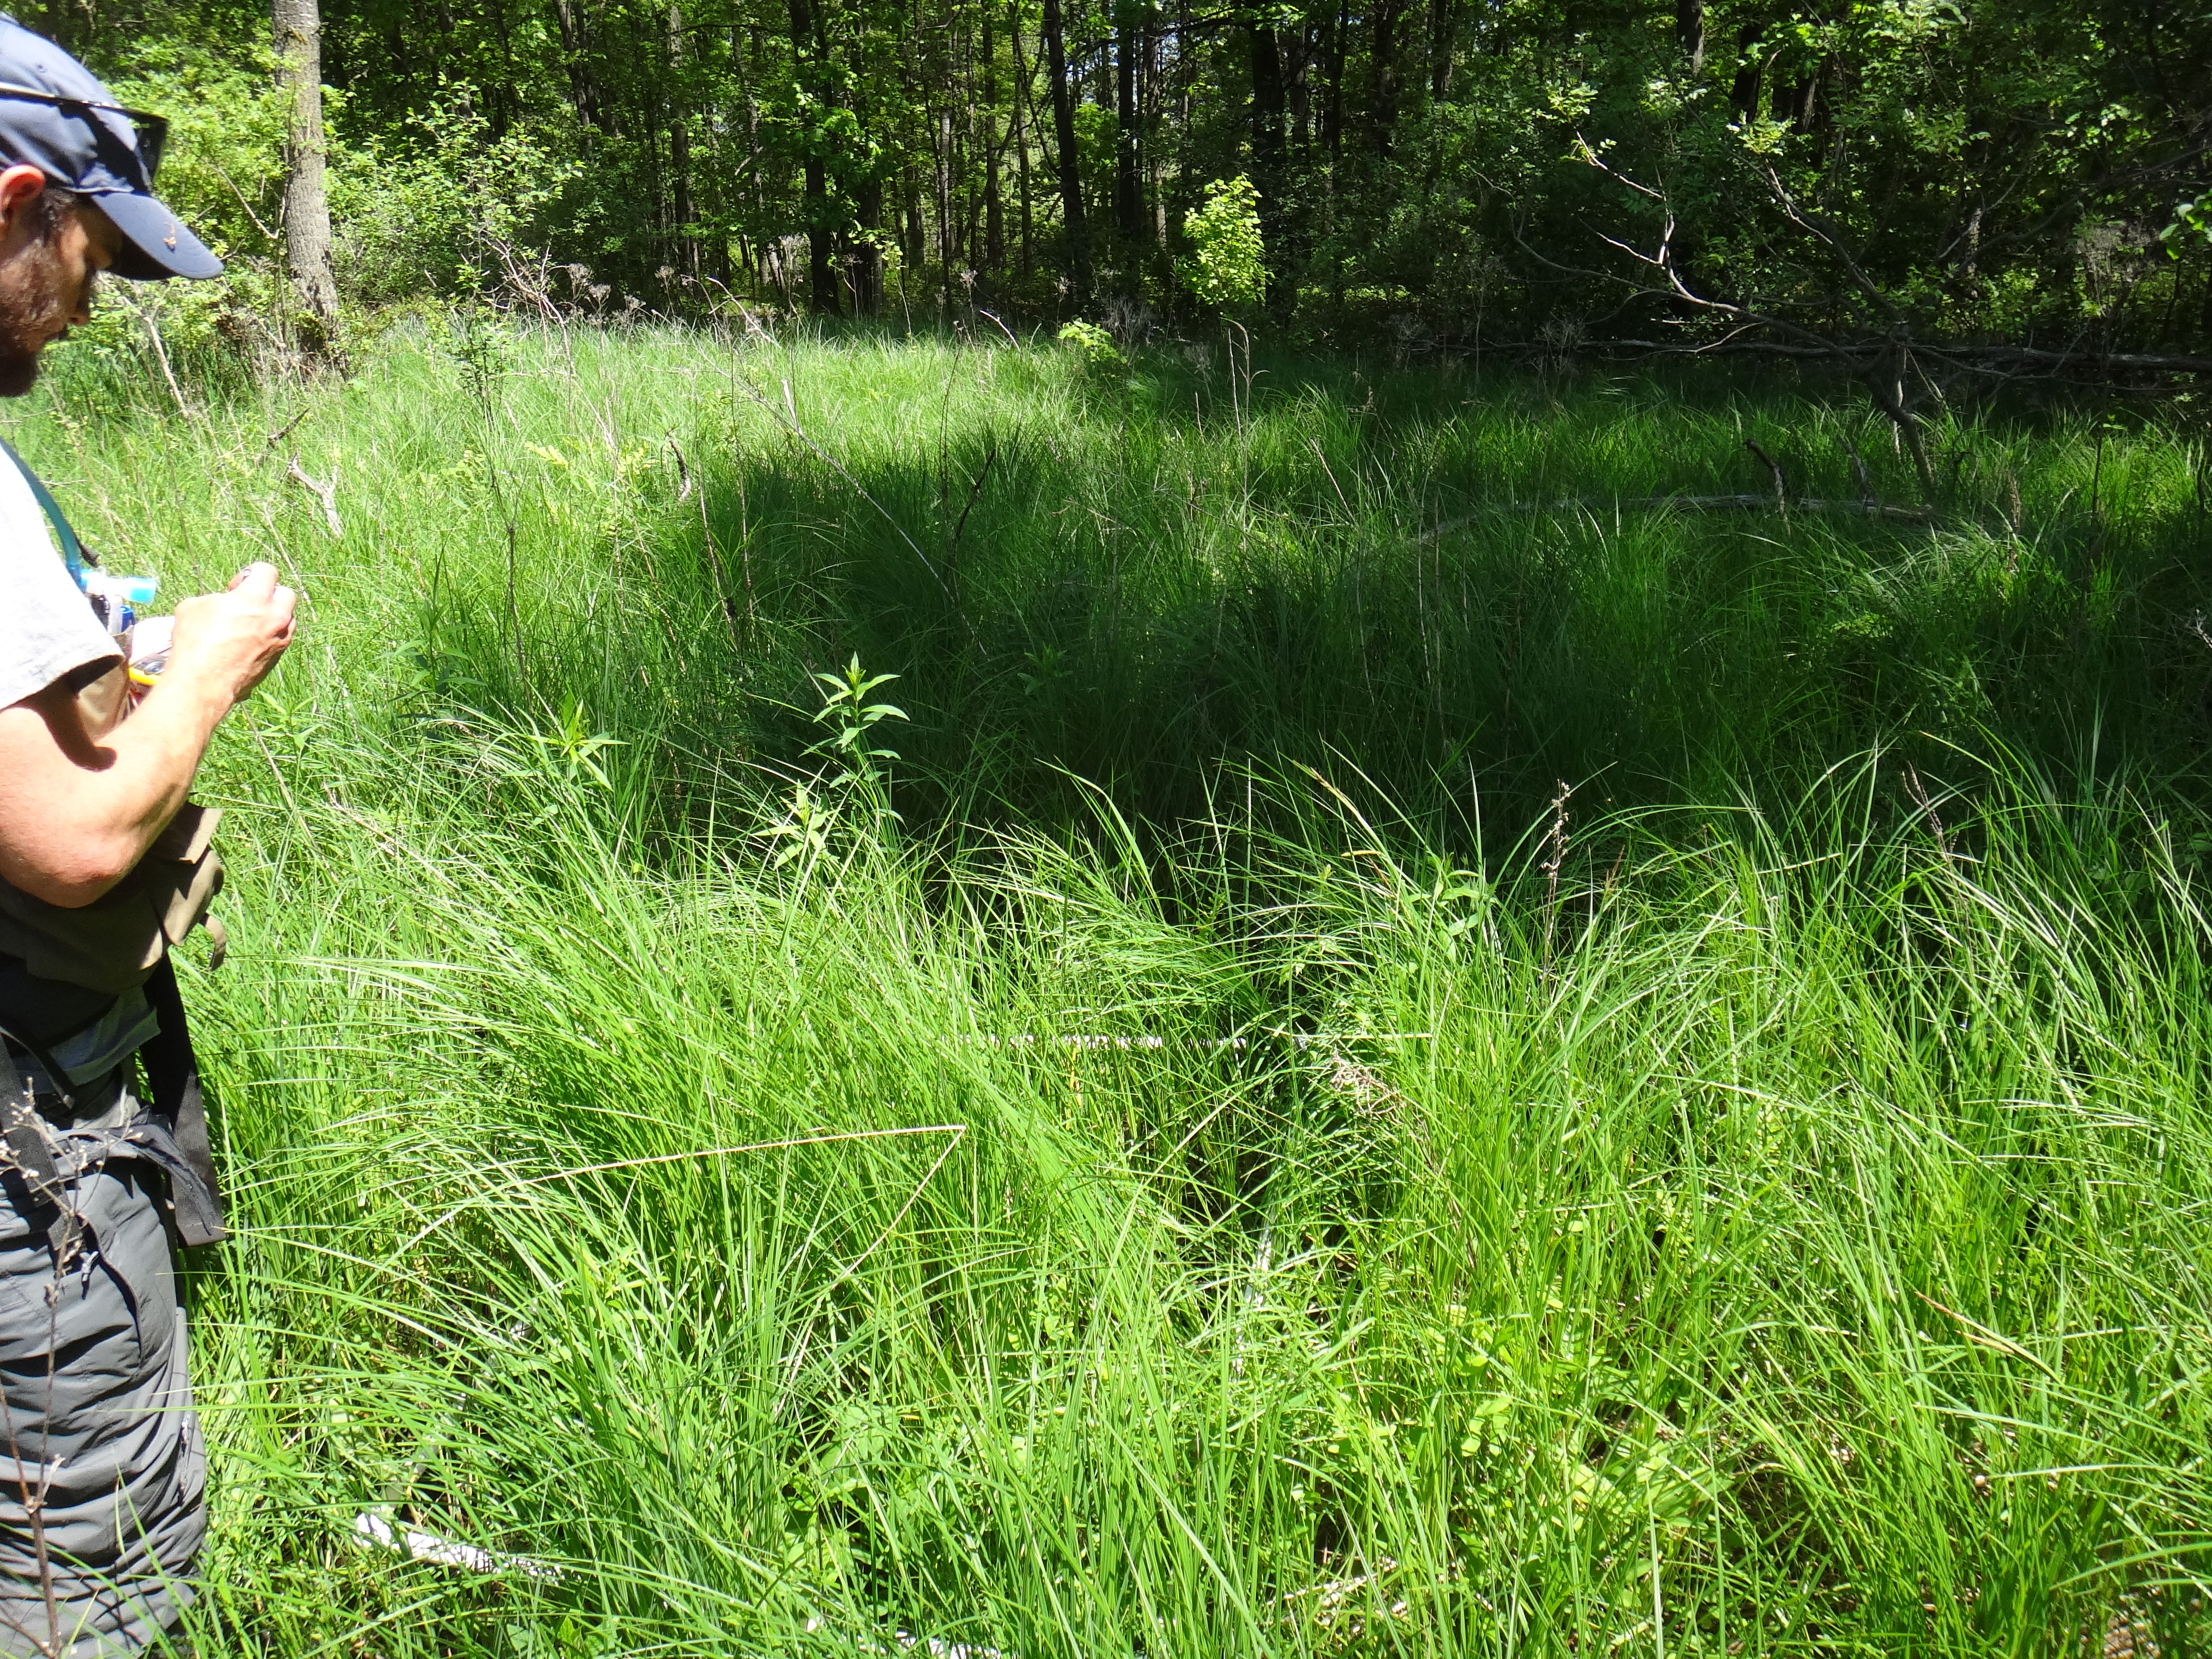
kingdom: Plantae
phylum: Tracheophyta
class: Magnoliopsida
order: Lamiales
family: Lamiaceae
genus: Lycopus
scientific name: Lycopus uniflorus
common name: Northern bugleweed
